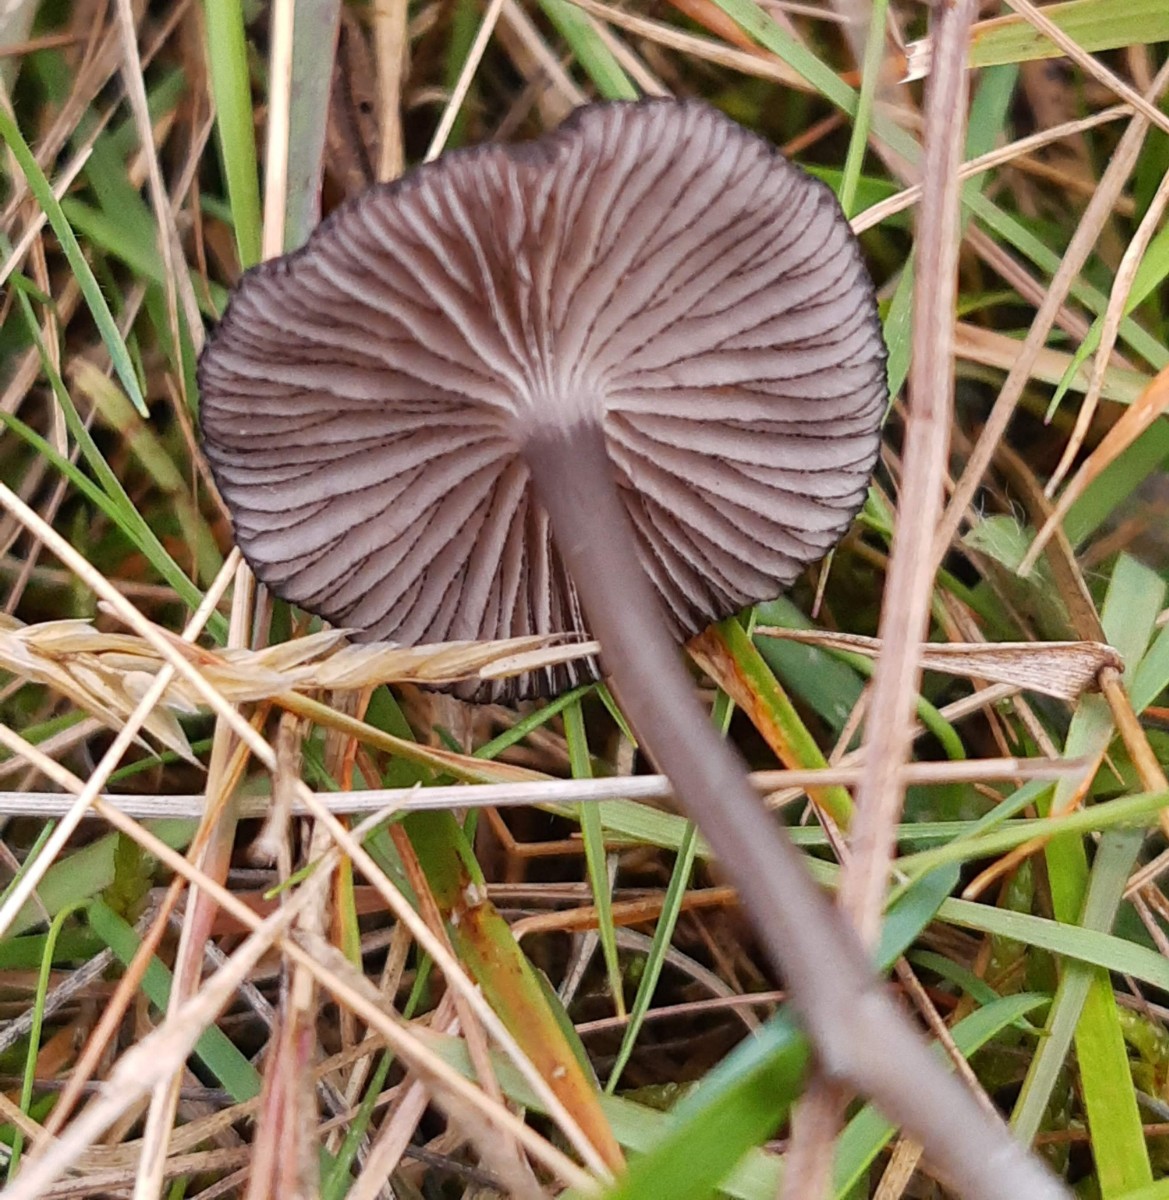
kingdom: Fungi
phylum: Basidiomycota
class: Agaricomycetes
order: Agaricales
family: Entolomataceae
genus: Entoloma
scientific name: Entoloma
